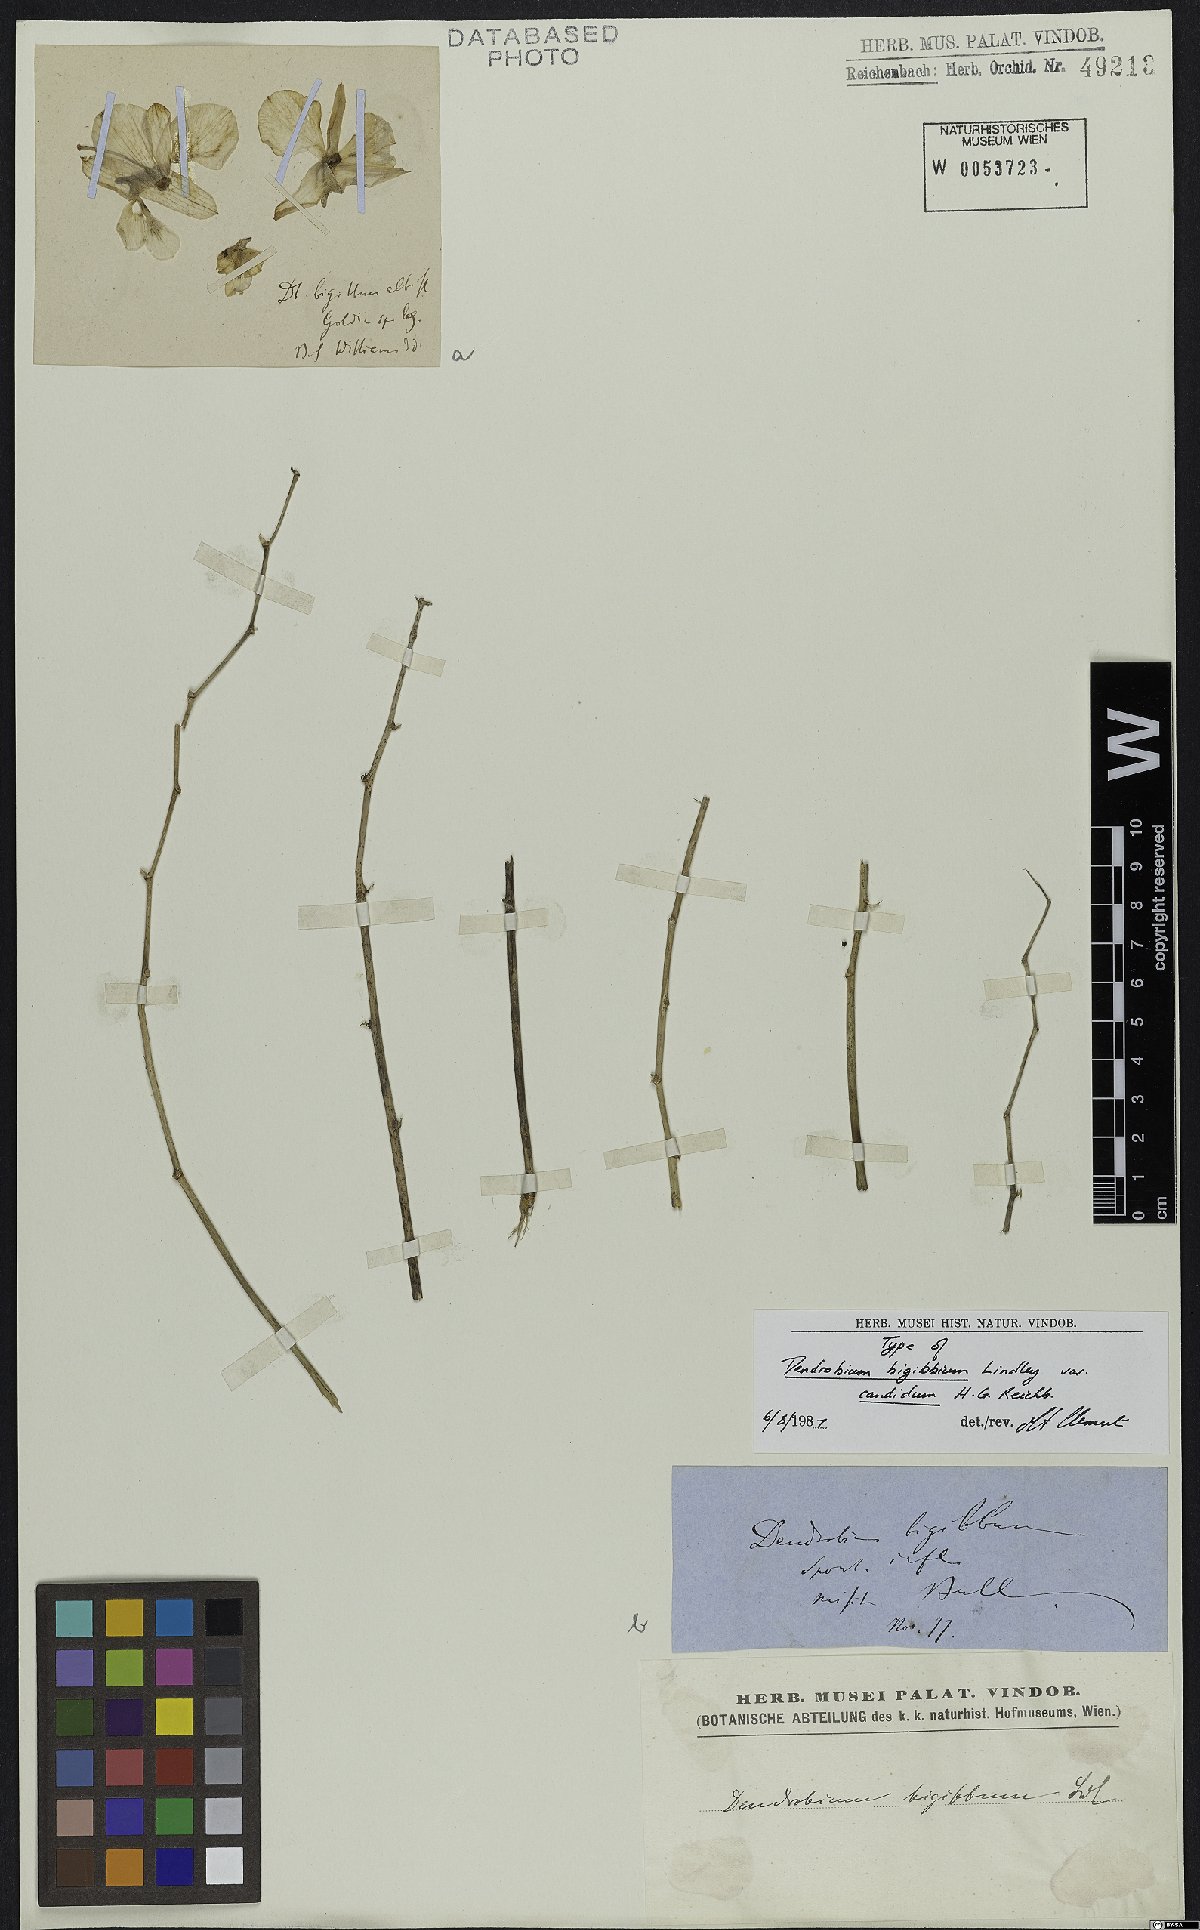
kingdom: Plantae
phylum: Tracheophyta
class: Liliopsida
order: Asparagales
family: Orchidaceae
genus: Dendrobium
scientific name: Dendrobium bigibbum
